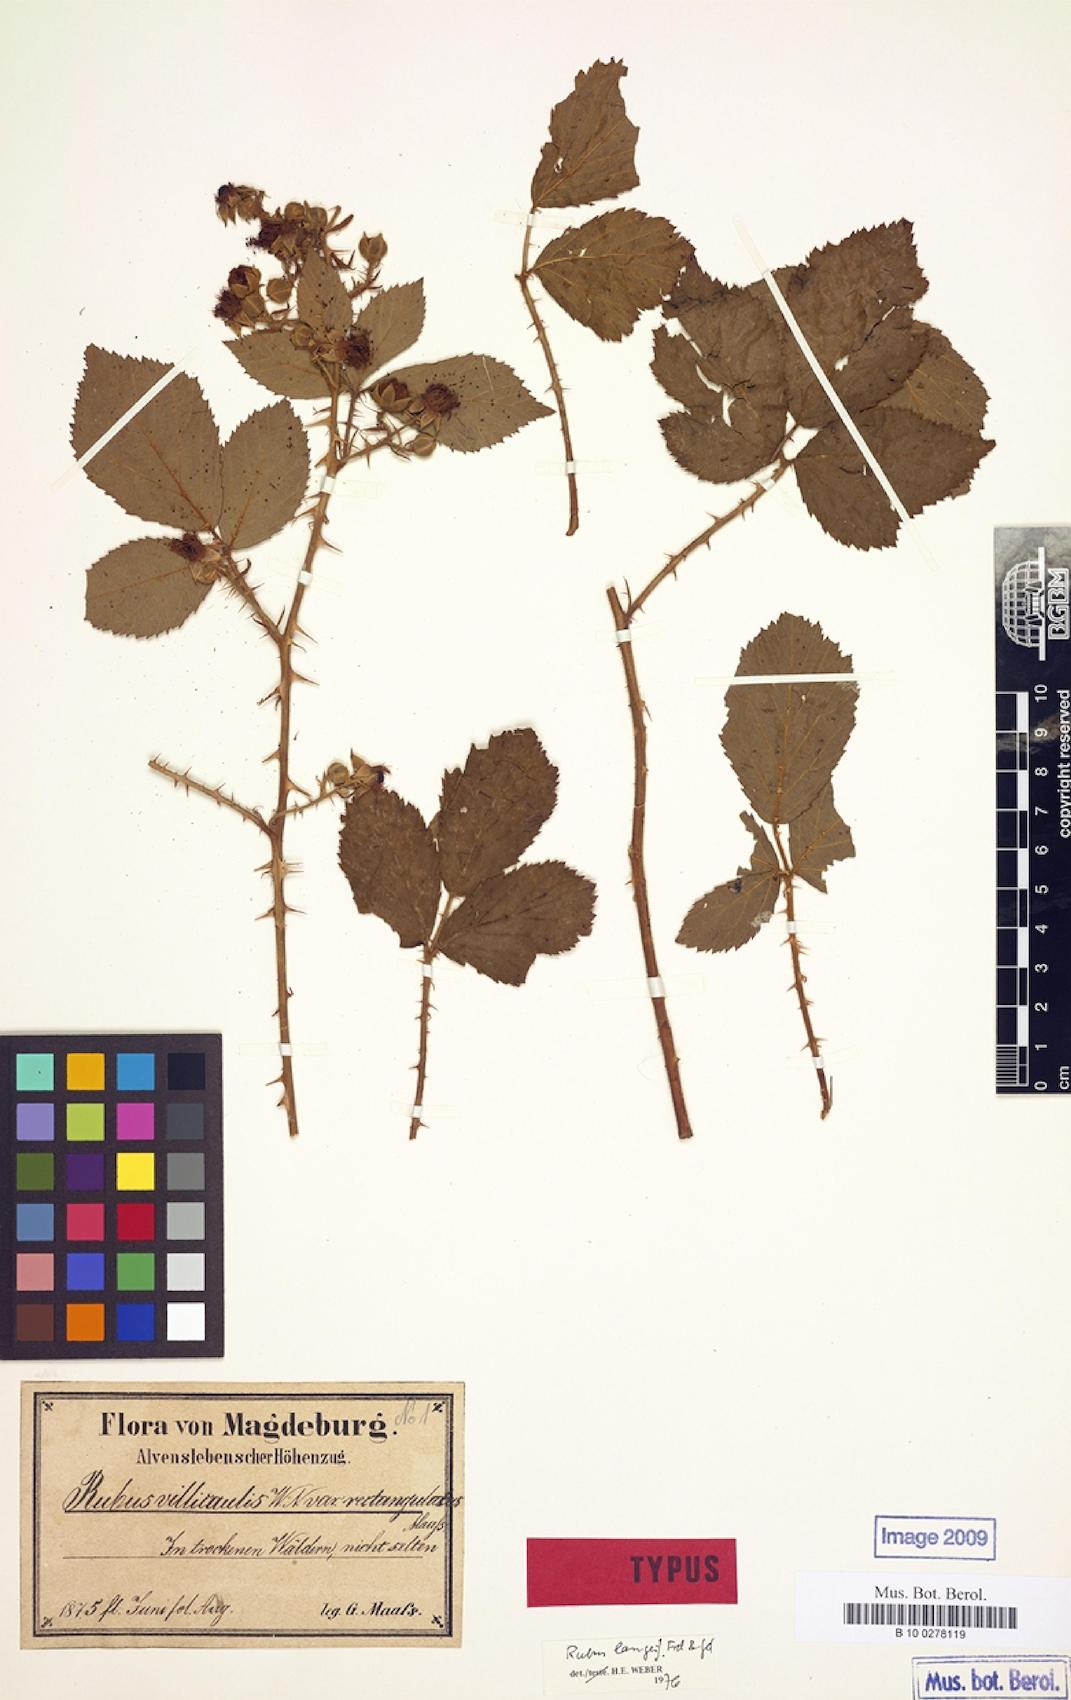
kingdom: Plantae
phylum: Tracheophyta
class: Magnoliopsida
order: Rosales
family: Rosaceae
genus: Rubus
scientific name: Rubus langei
